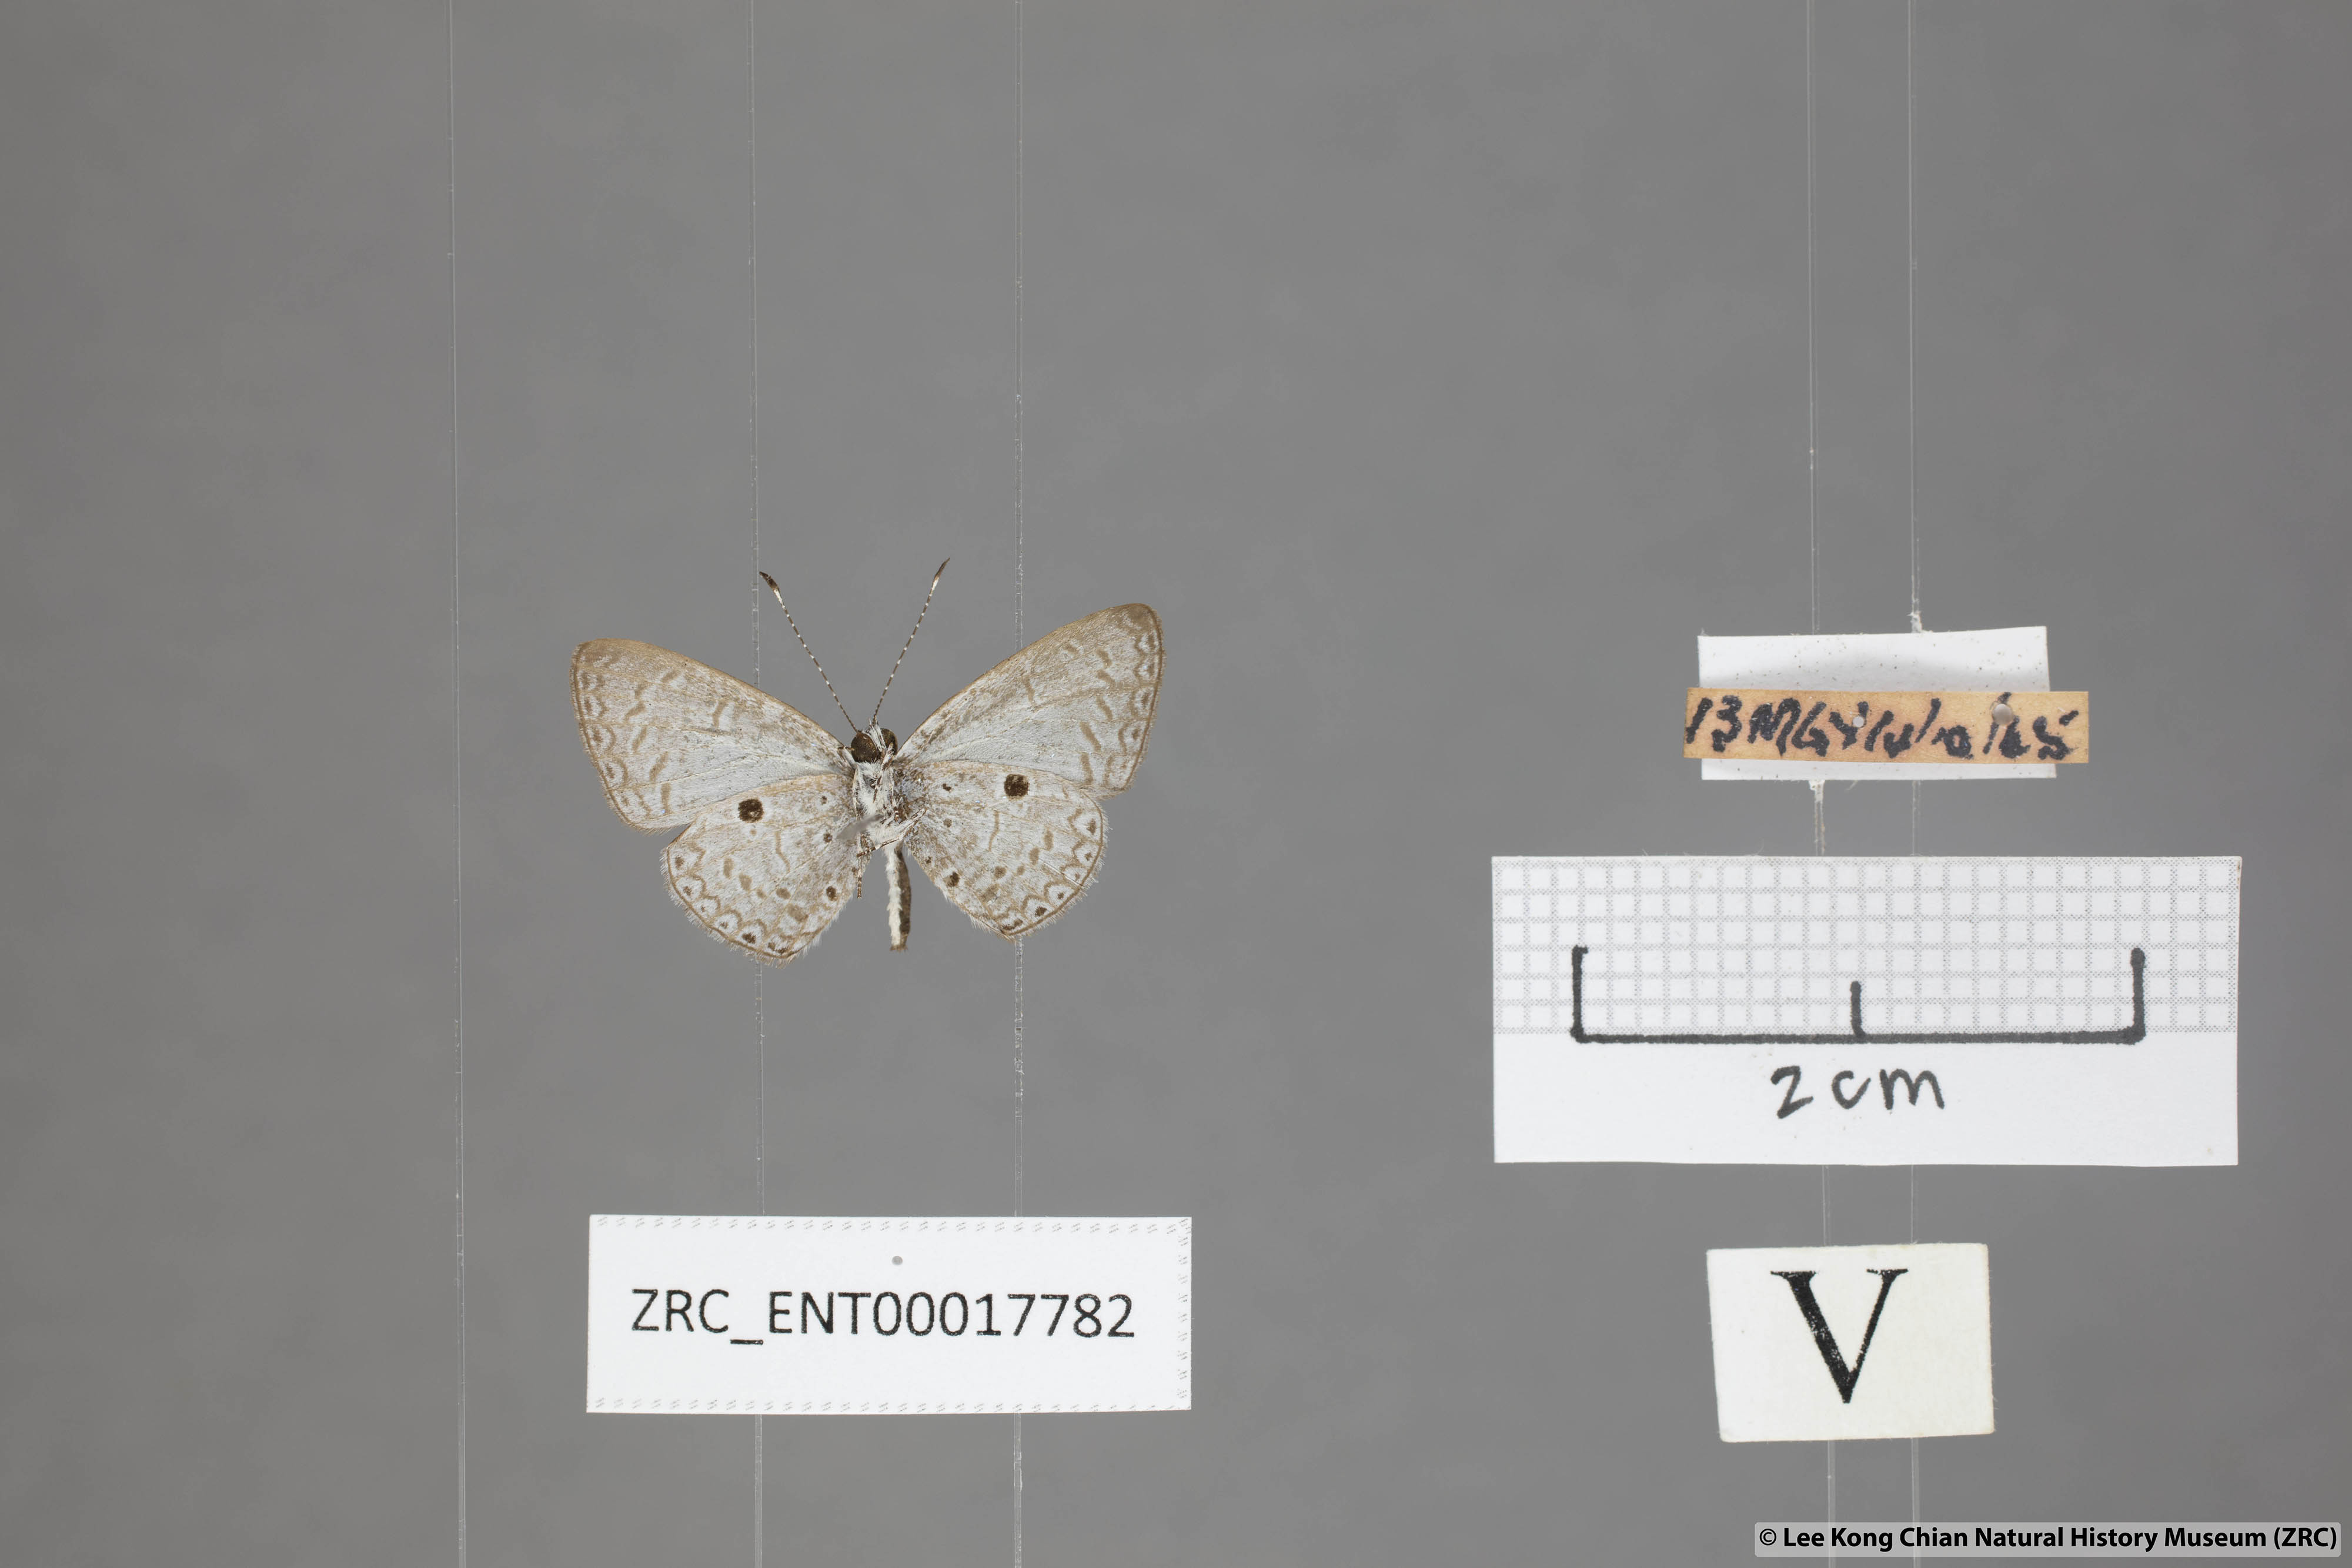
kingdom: Animalia
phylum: Arthropoda
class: Insecta
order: Lepidoptera
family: Lycaenidae
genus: Callenya
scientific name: Callenya lenya
